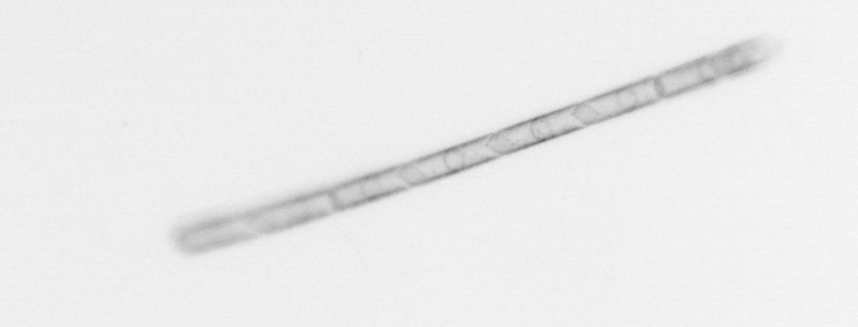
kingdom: Chromista
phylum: Ochrophyta
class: Bacillariophyceae
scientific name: Bacillariophyceae
